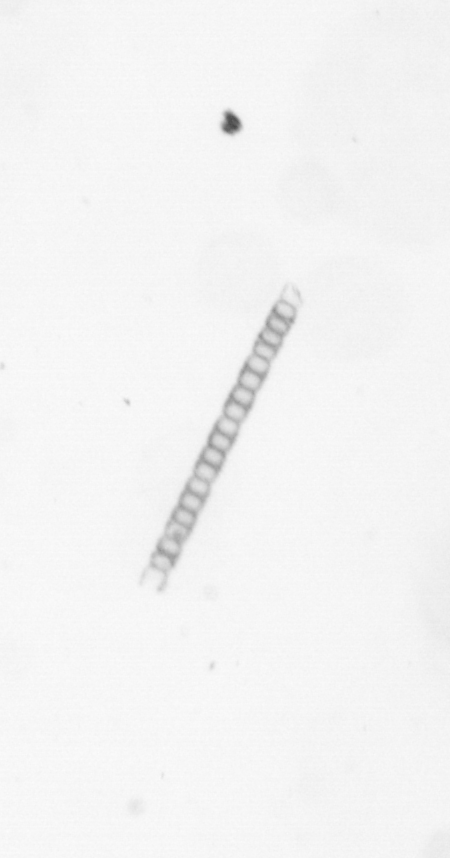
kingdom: Chromista
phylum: Ochrophyta
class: Bacillariophyceae
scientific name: Bacillariophyceae
